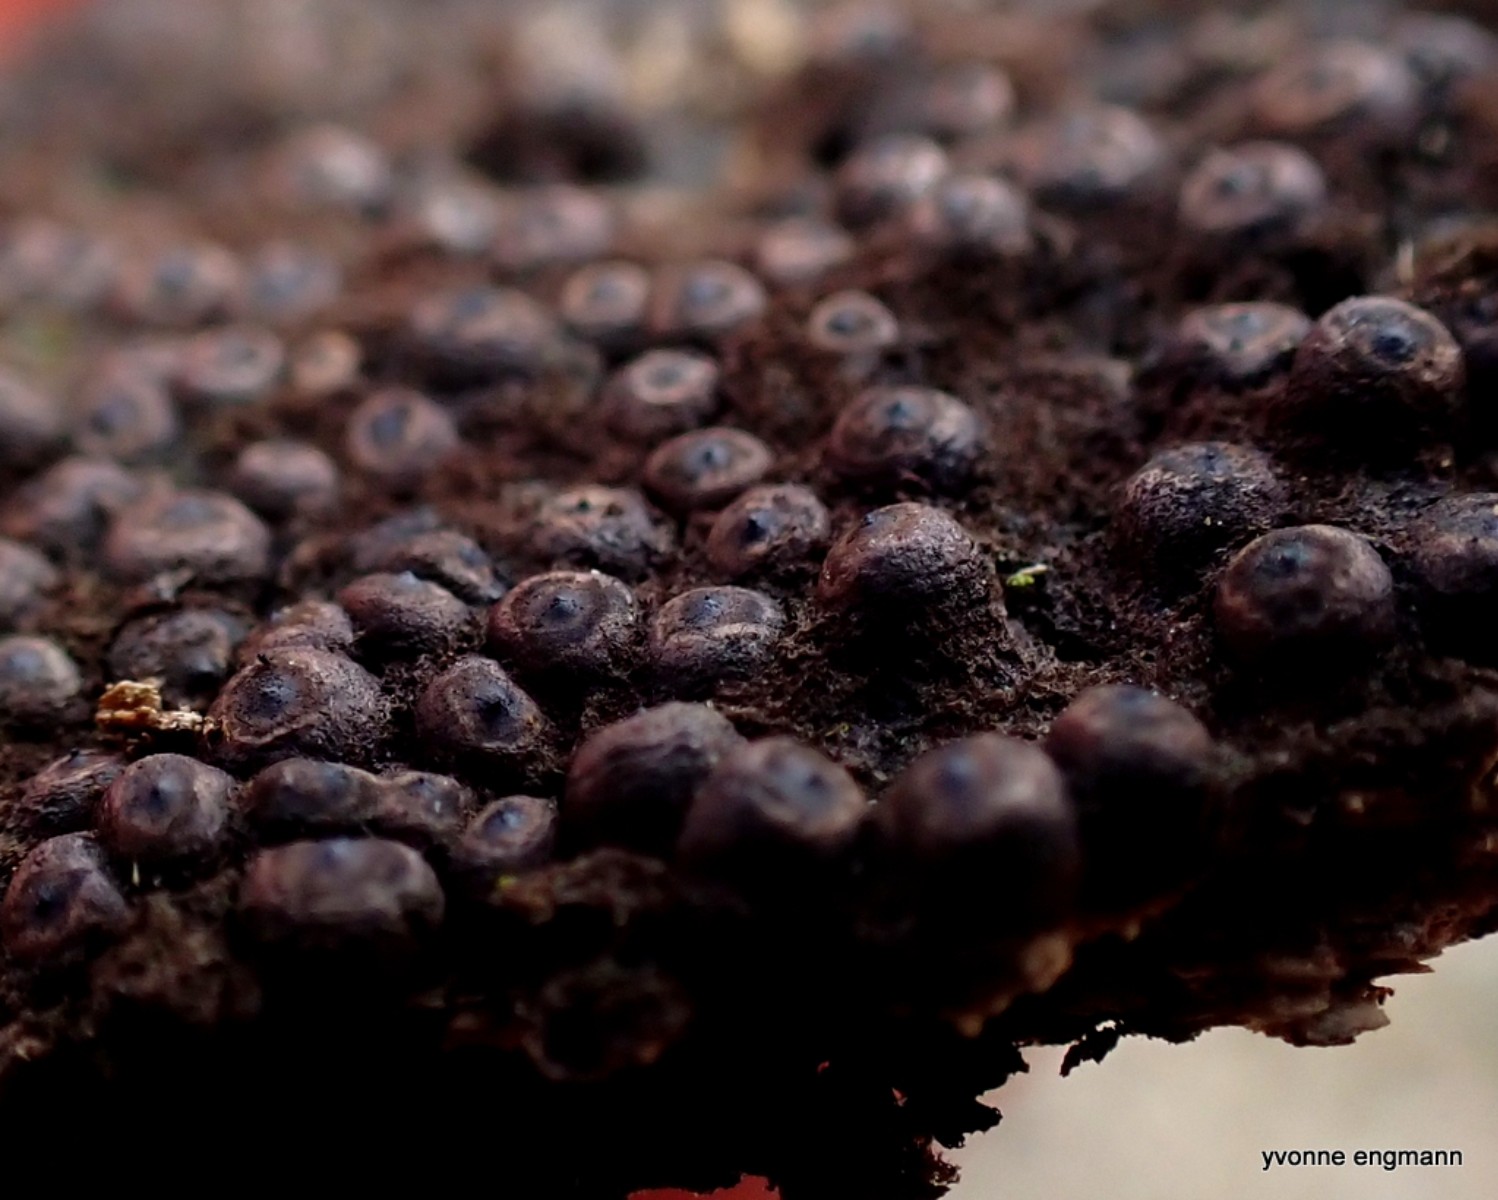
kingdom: Fungi
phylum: Ascomycota
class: Sordariomycetes
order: Xylariales
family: Xylariaceae
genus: Rosellinia
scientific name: Rosellinia
